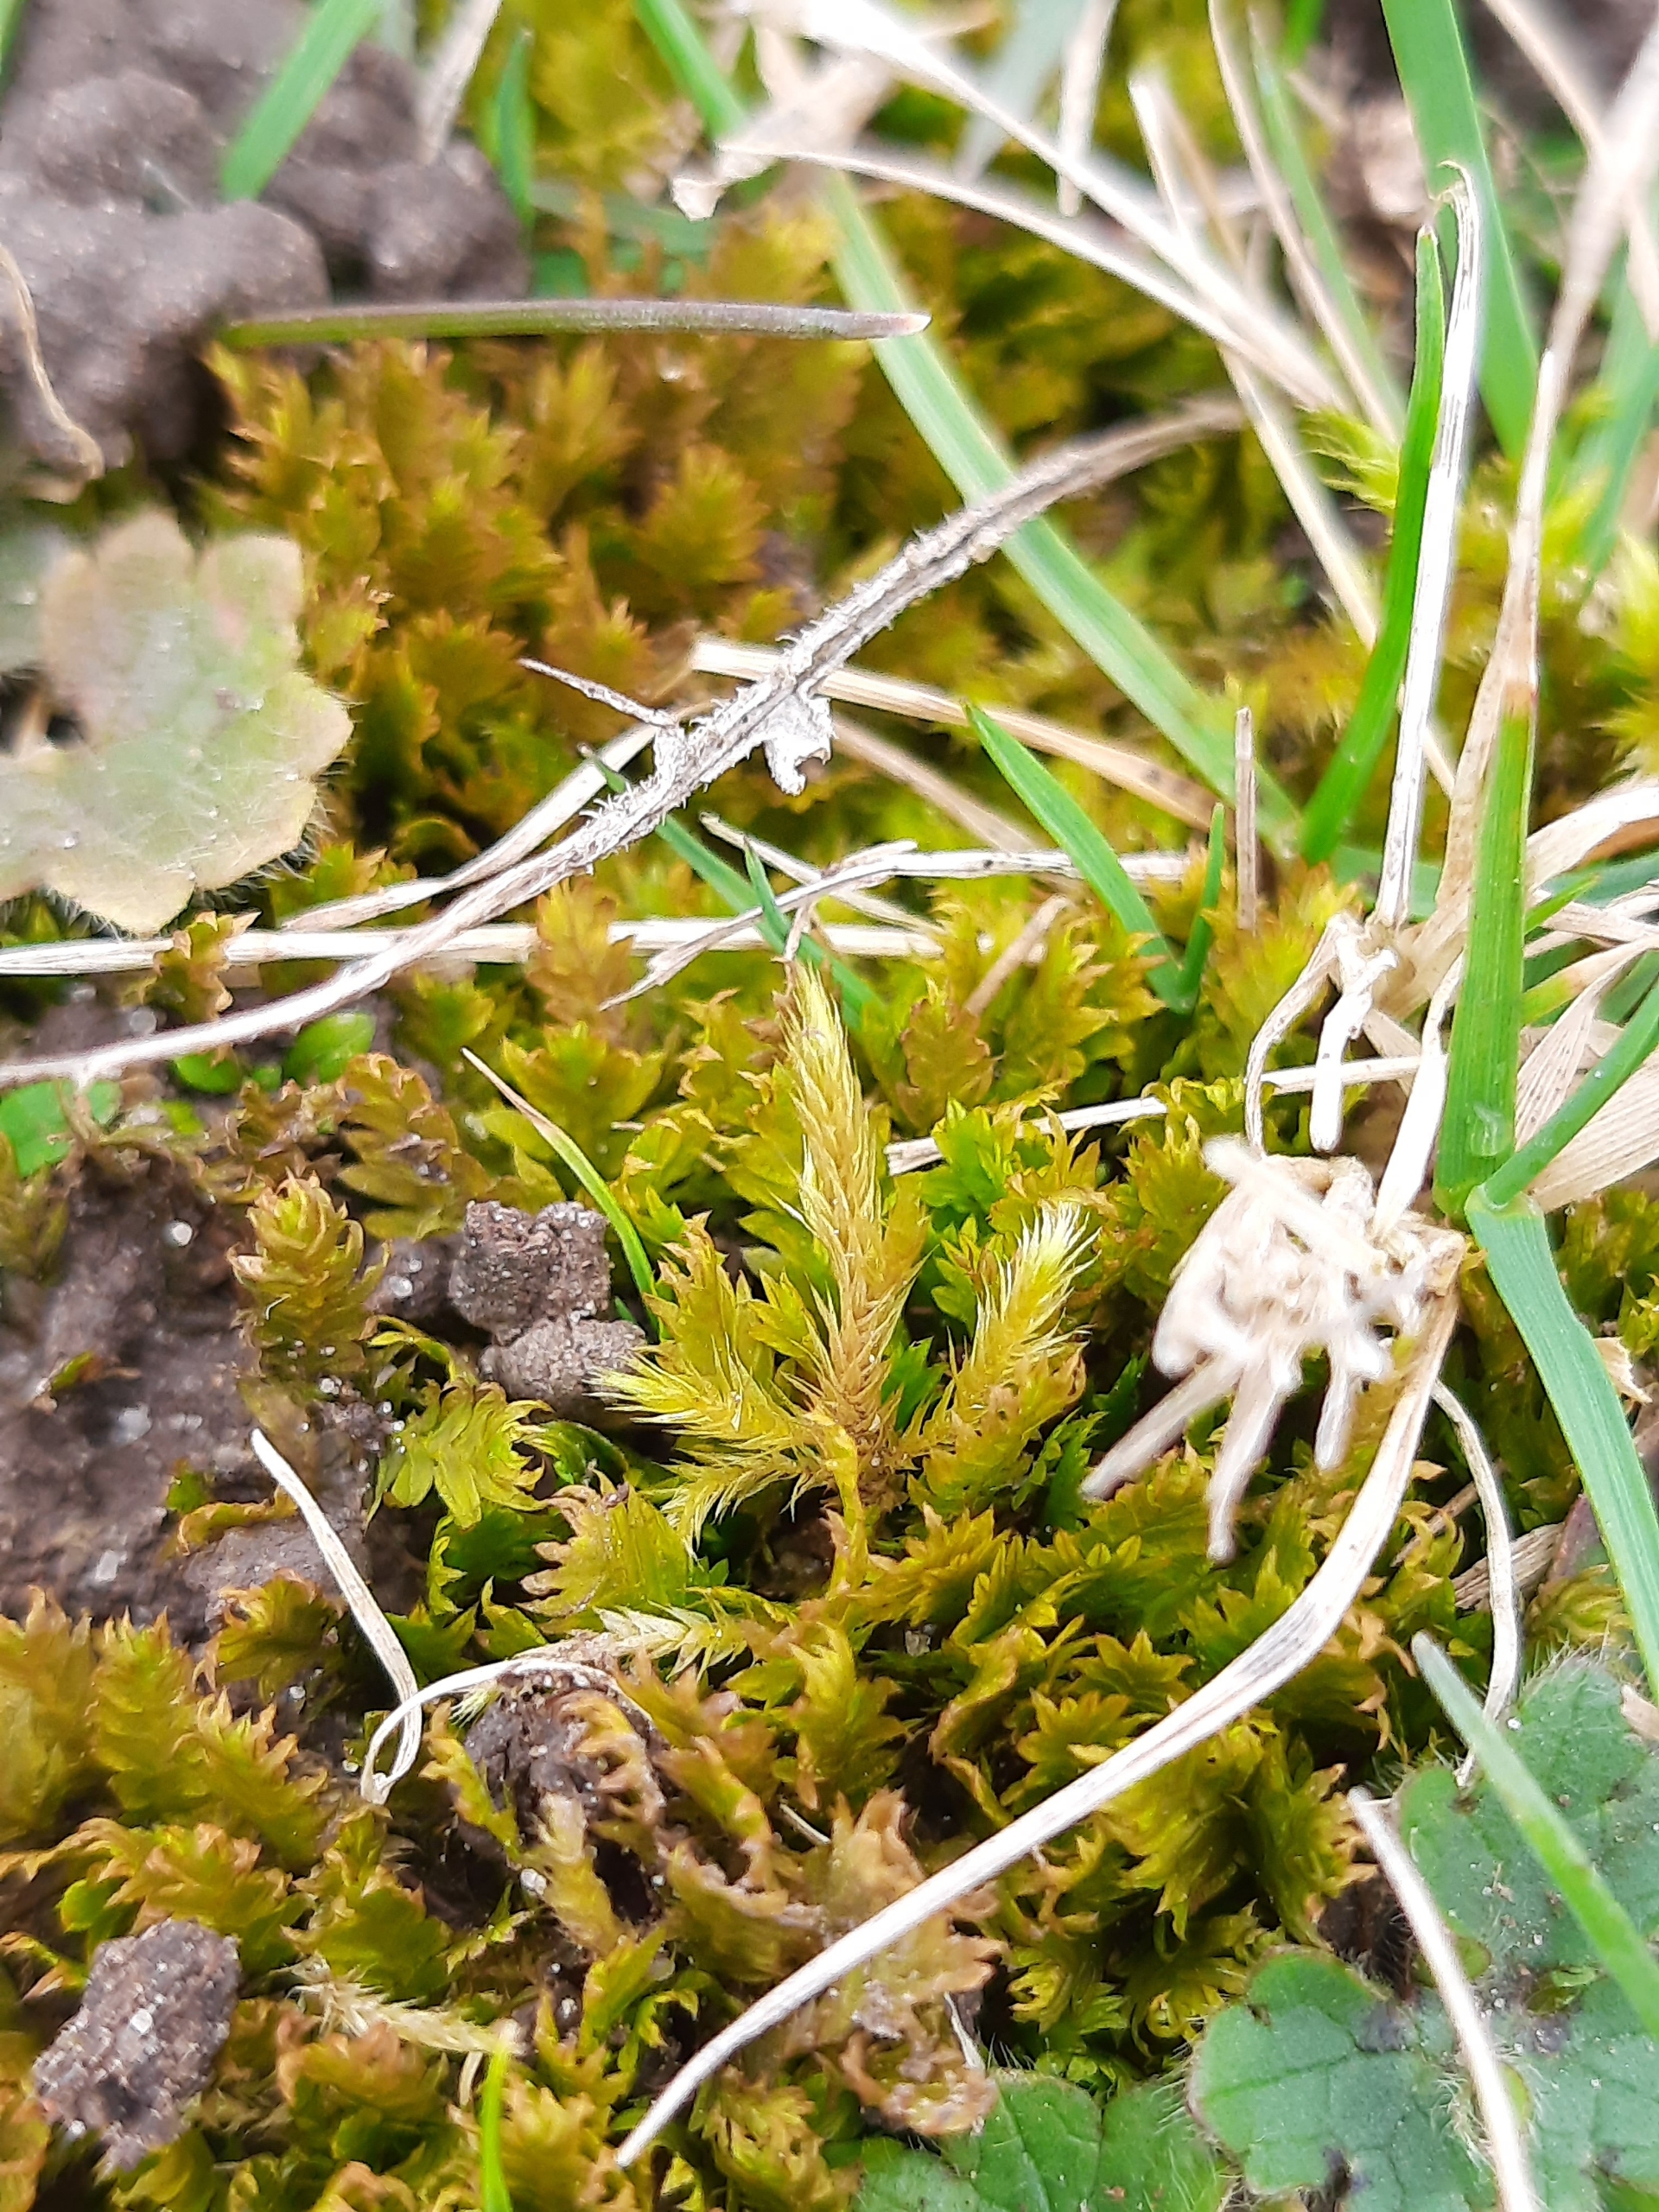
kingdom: Plantae
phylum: Bryophyta
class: Bryopsida
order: Dicranales
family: Fissidentaceae
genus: Fissidens
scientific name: Fissidens
